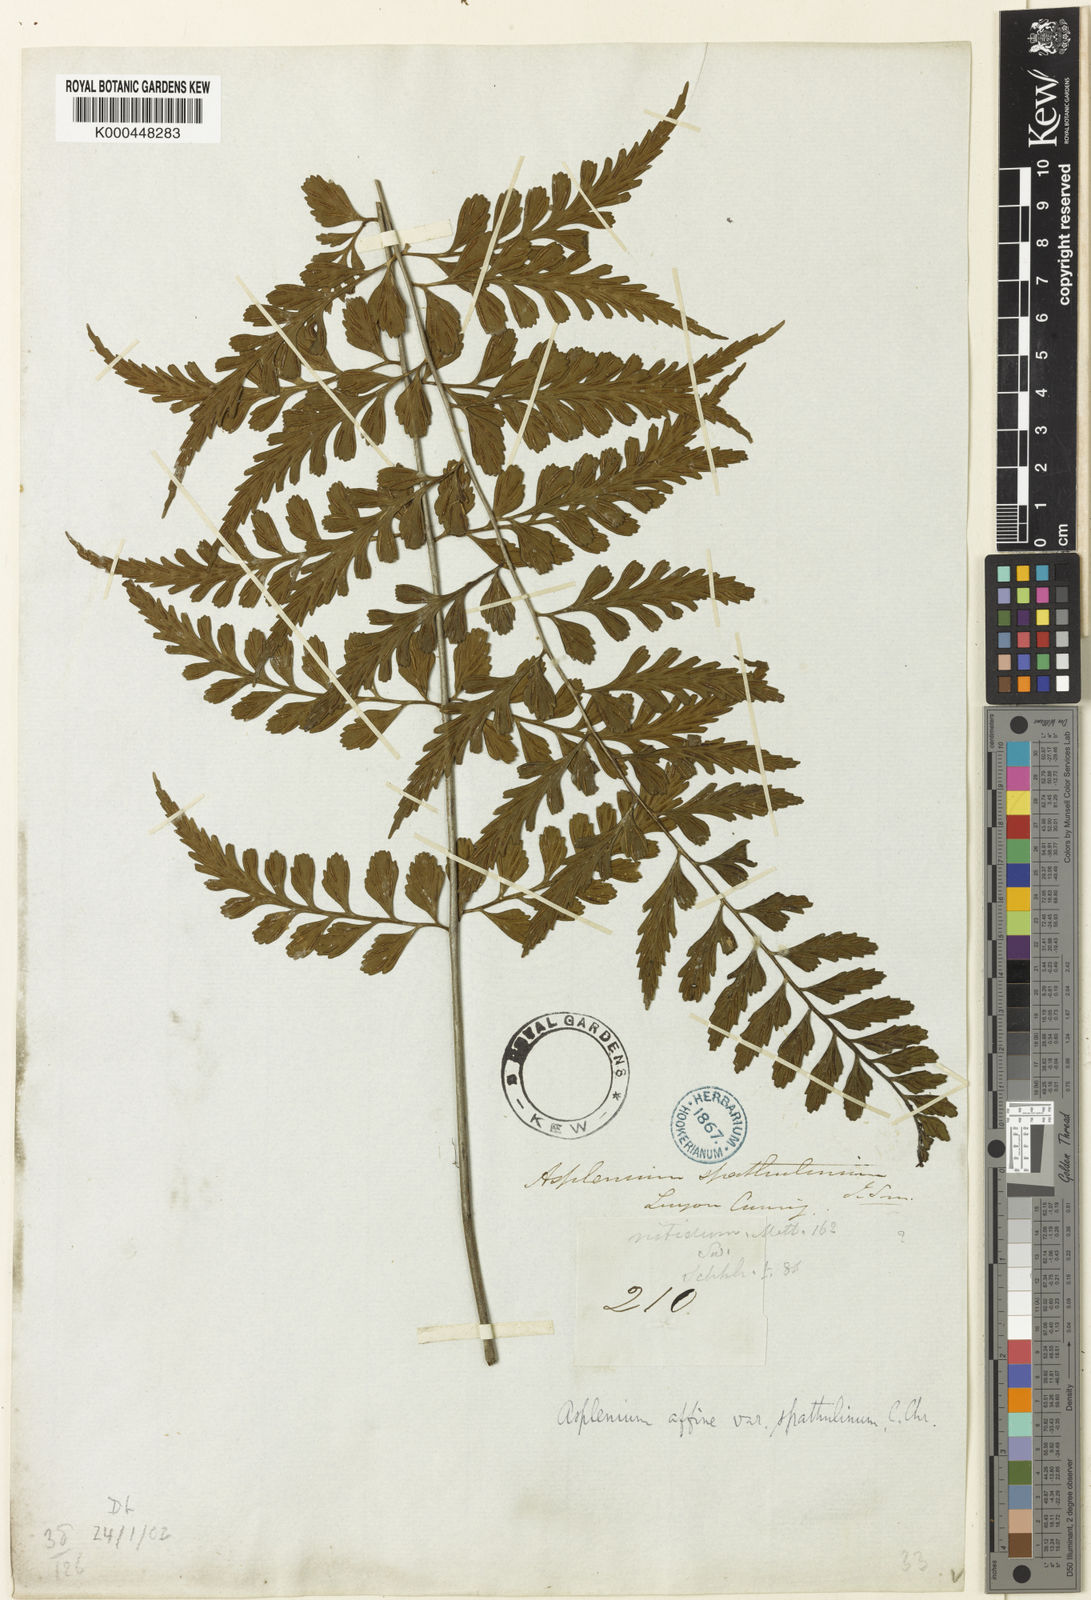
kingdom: Plantae
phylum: Tracheophyta
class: Polypodiopsida
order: Polypodiales
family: Aspleniaceae
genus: Asplenium
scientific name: Asplenium affine
